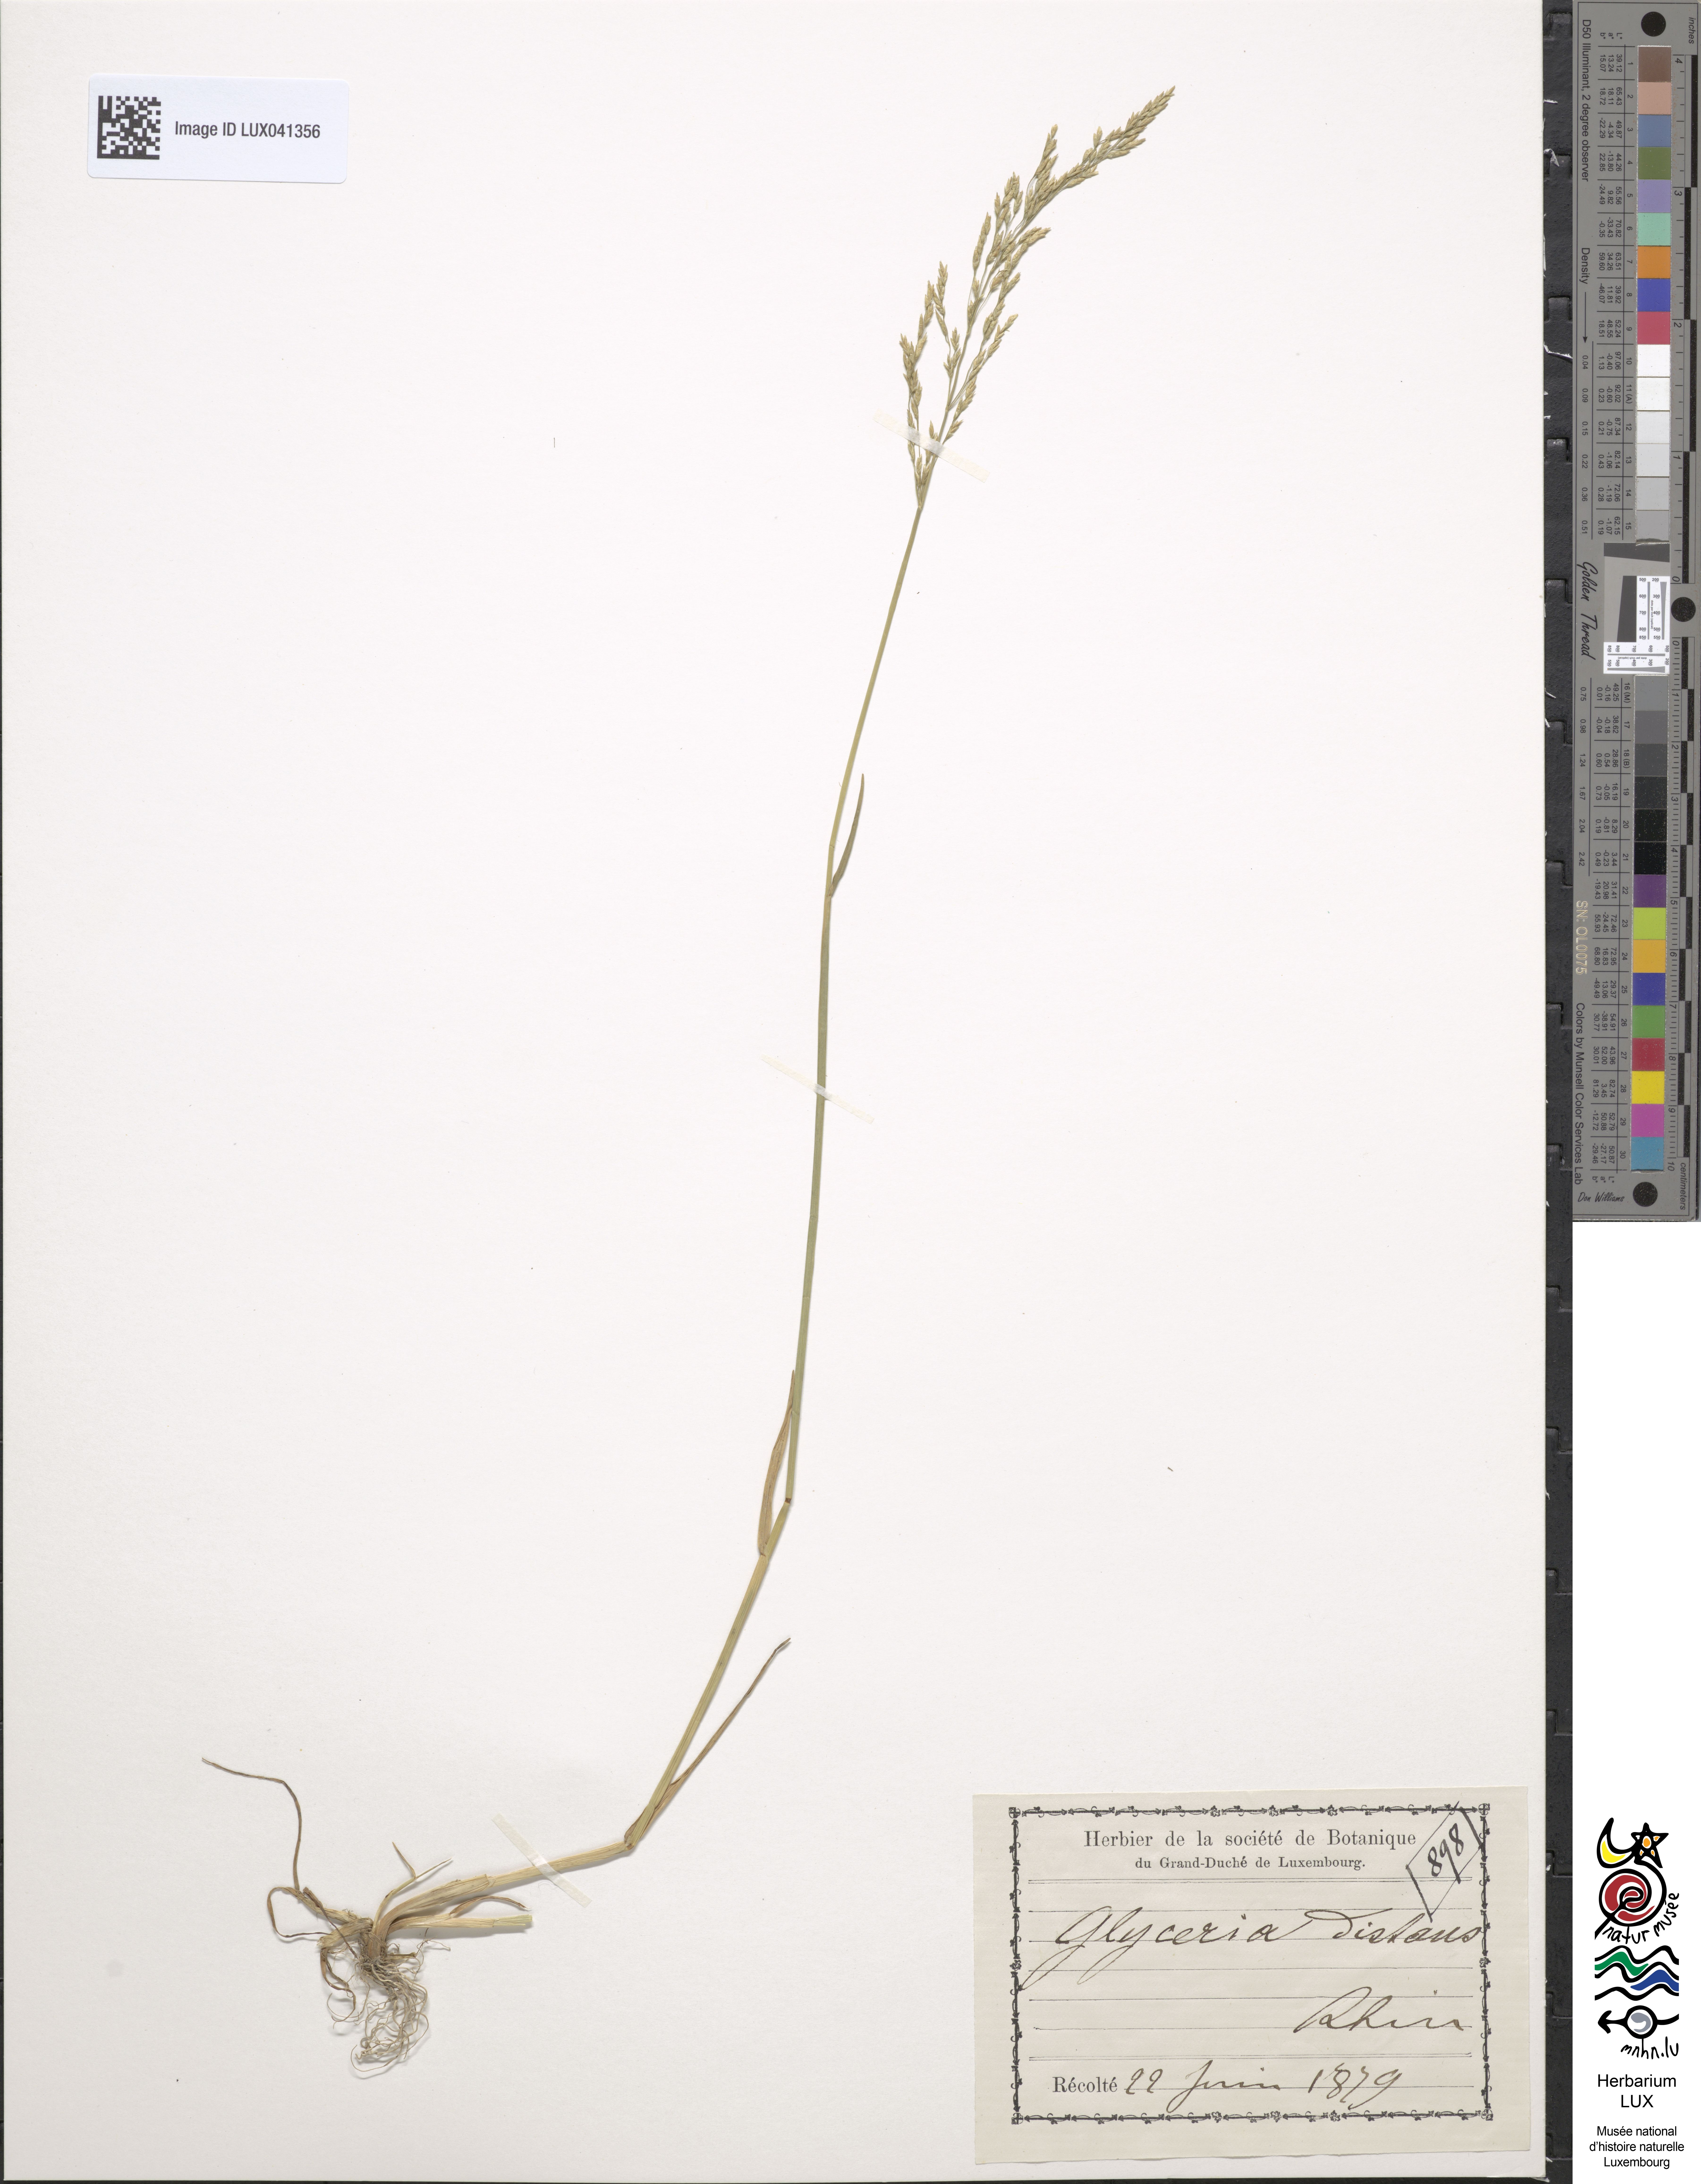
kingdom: Plantae
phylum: Tracheophyta
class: Liliopsida
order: Poales
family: Poaceae
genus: Puccinellia
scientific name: Puccinellia distans
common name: Weeping alkaligrass
